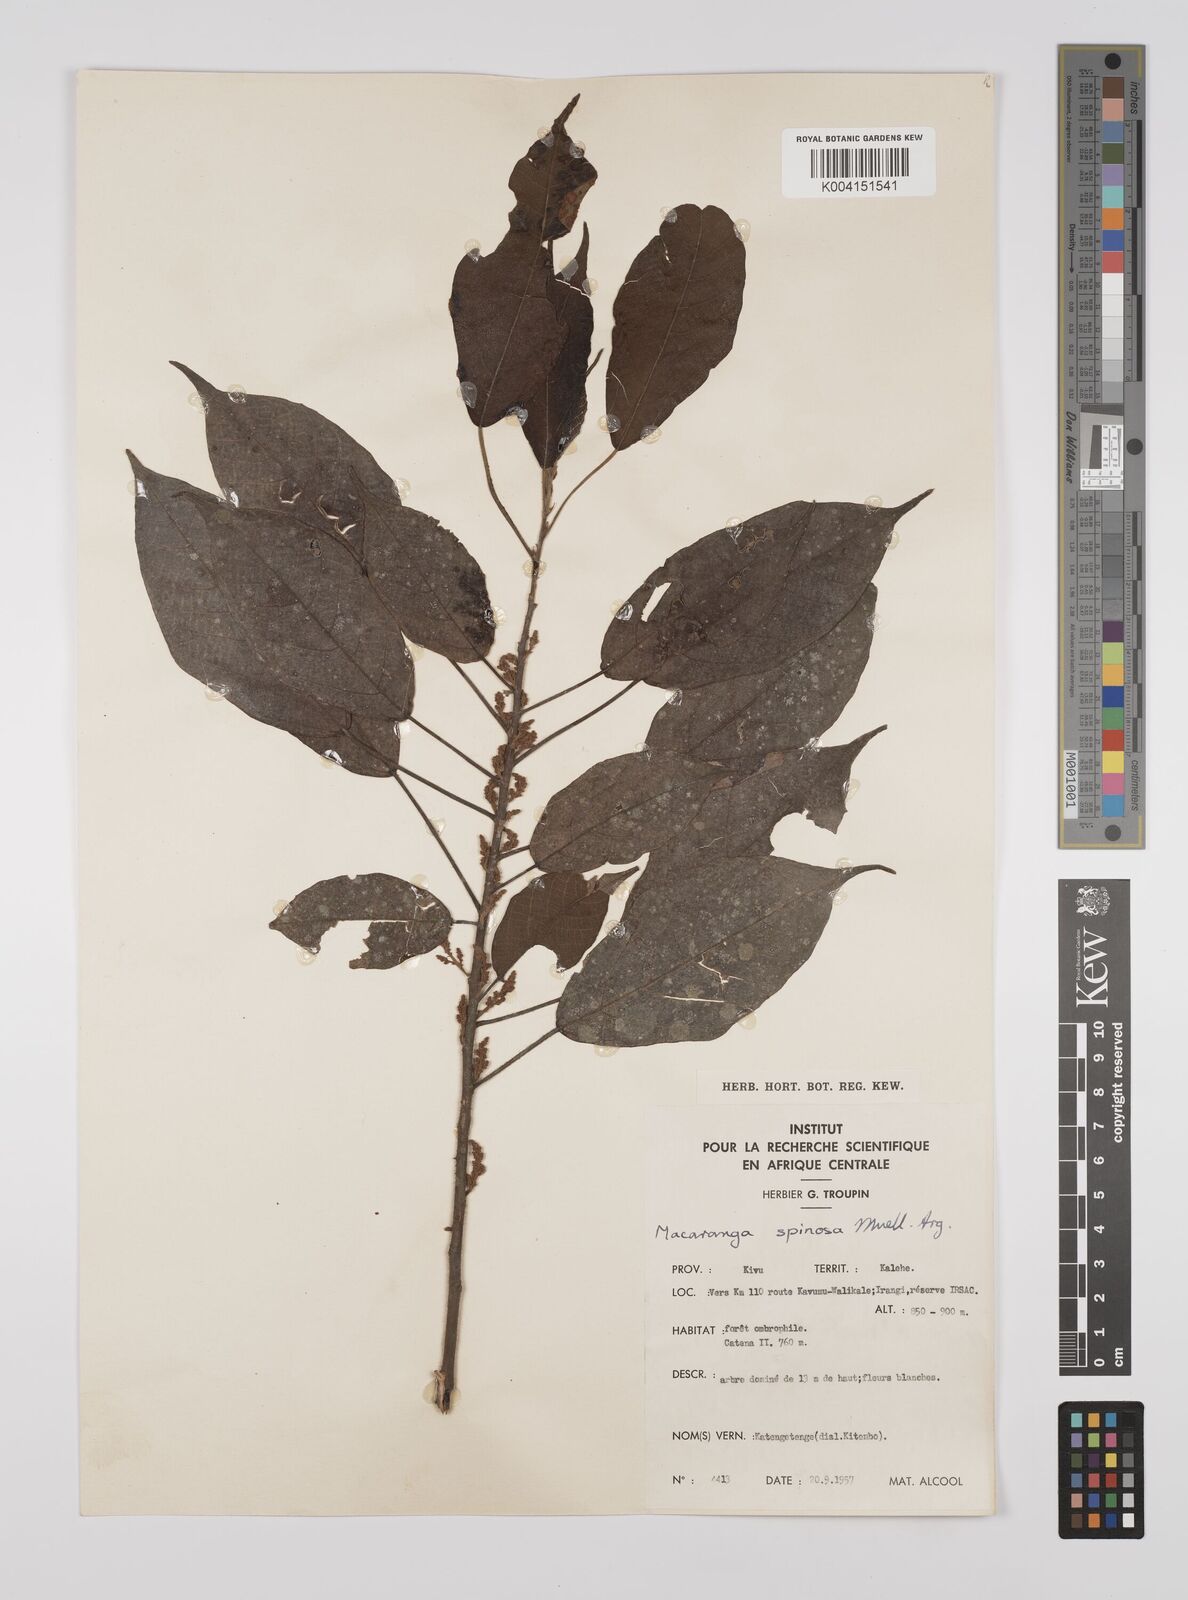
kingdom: Plantae
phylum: Tracheophyta
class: Magnoliopsida
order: Malpighiales
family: Euphorbiaceae
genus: Macaranga
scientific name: Macaranga spinosa
